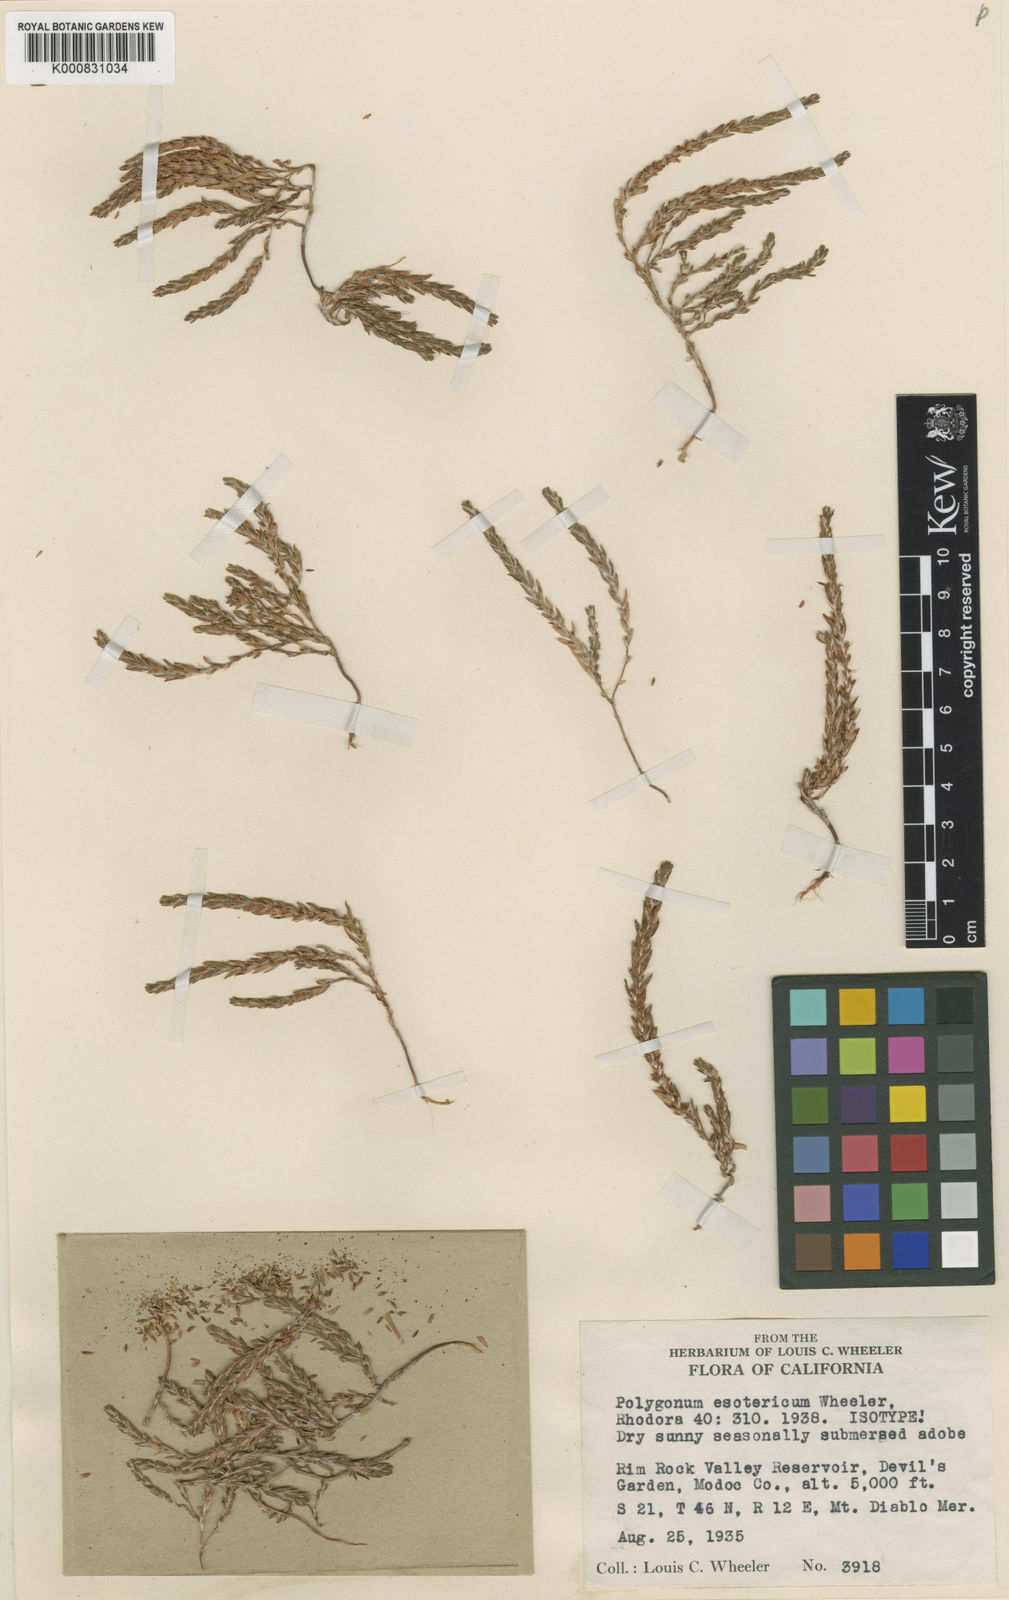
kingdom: Plantae
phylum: Tracheophyta
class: Magnoliopsida
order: Caryophyllales
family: Polygonaceae
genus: Polygonum
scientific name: Polygonum kelloggii
